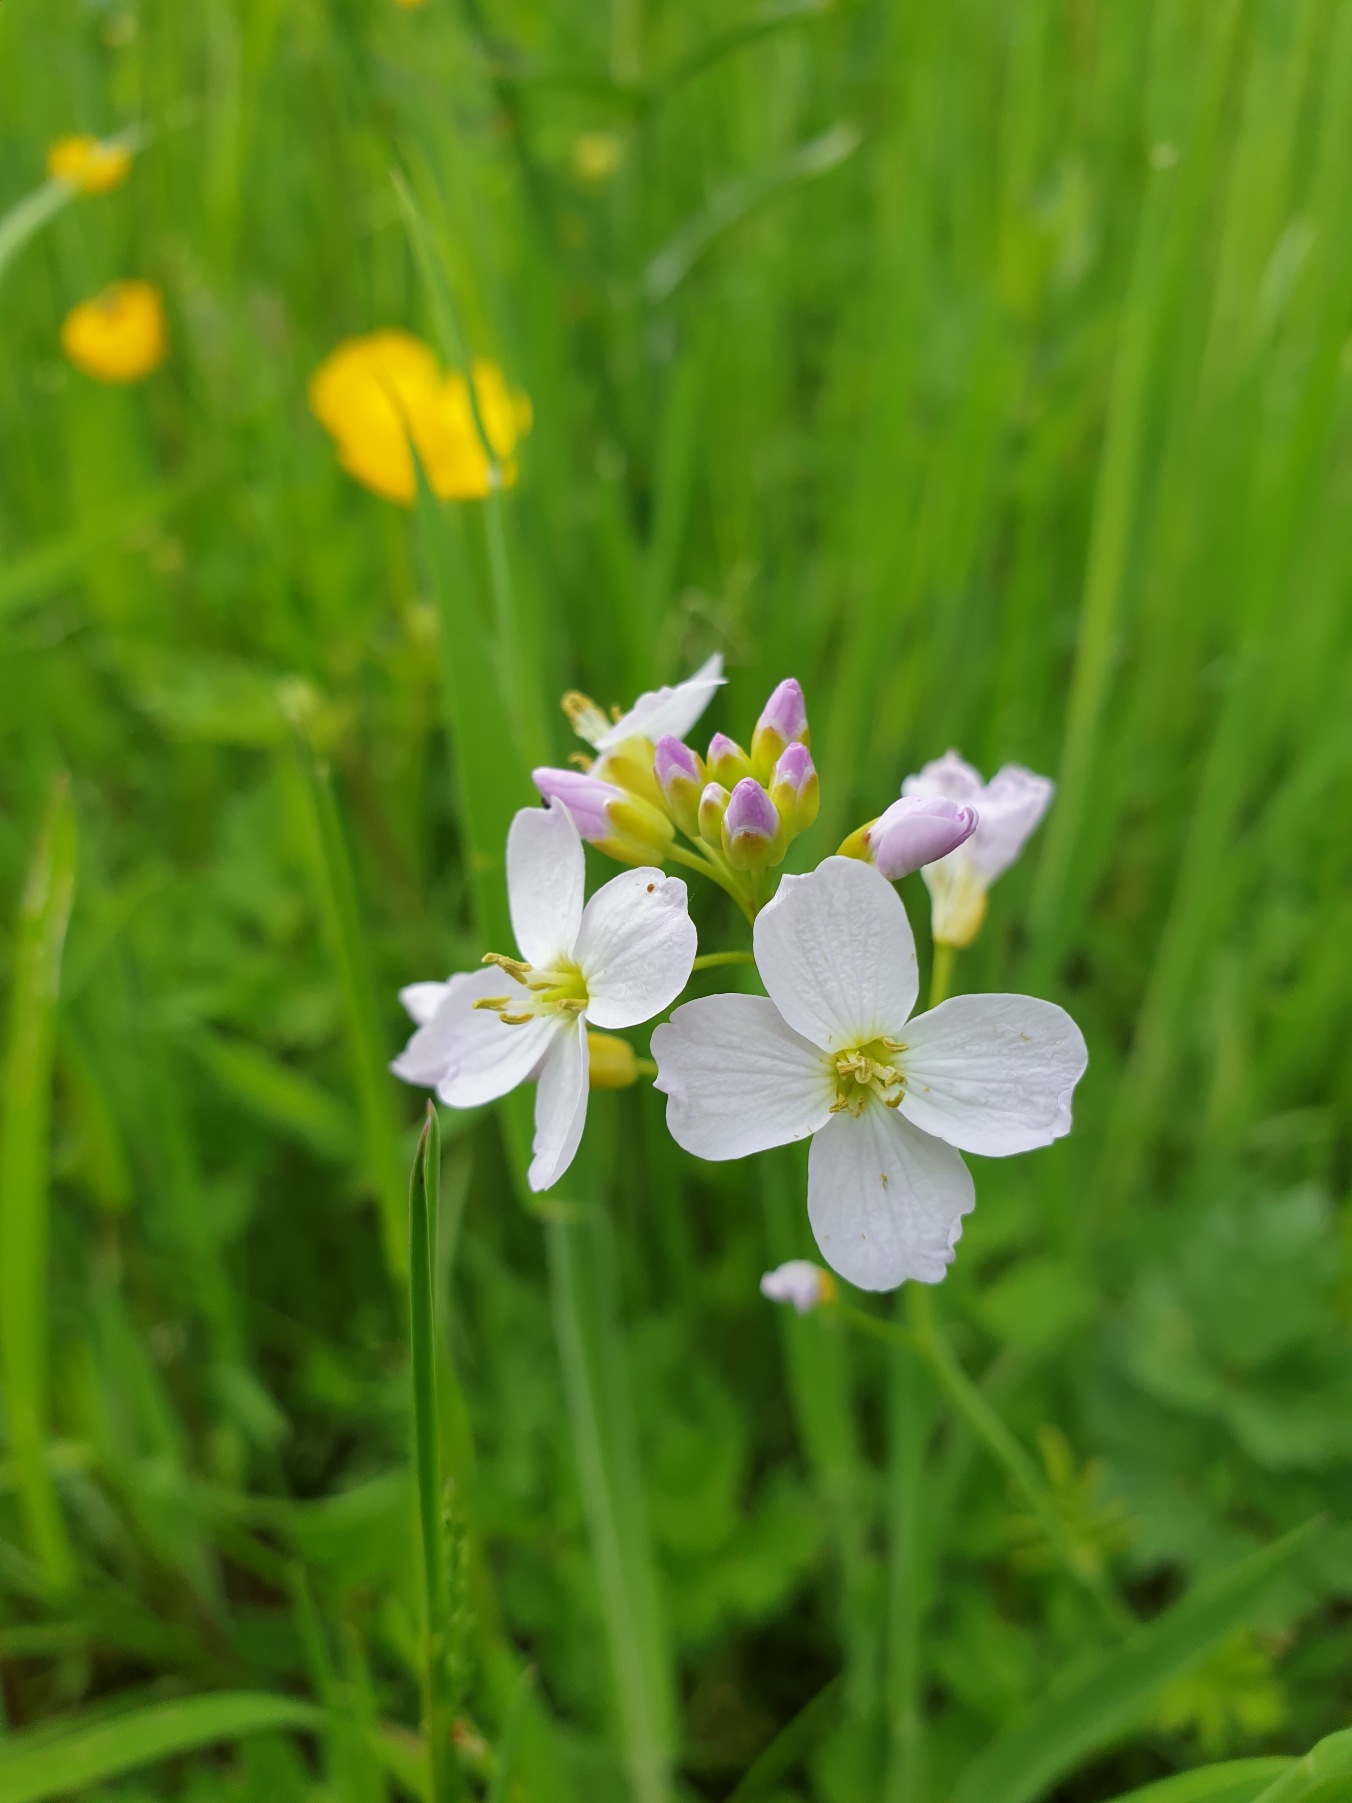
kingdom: Plantae
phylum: Tracheophyta
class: Magnoliopsida
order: Brassicales
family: Brassicaceae
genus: Cardamine
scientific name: Cardamine pratensis
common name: Engkarse
